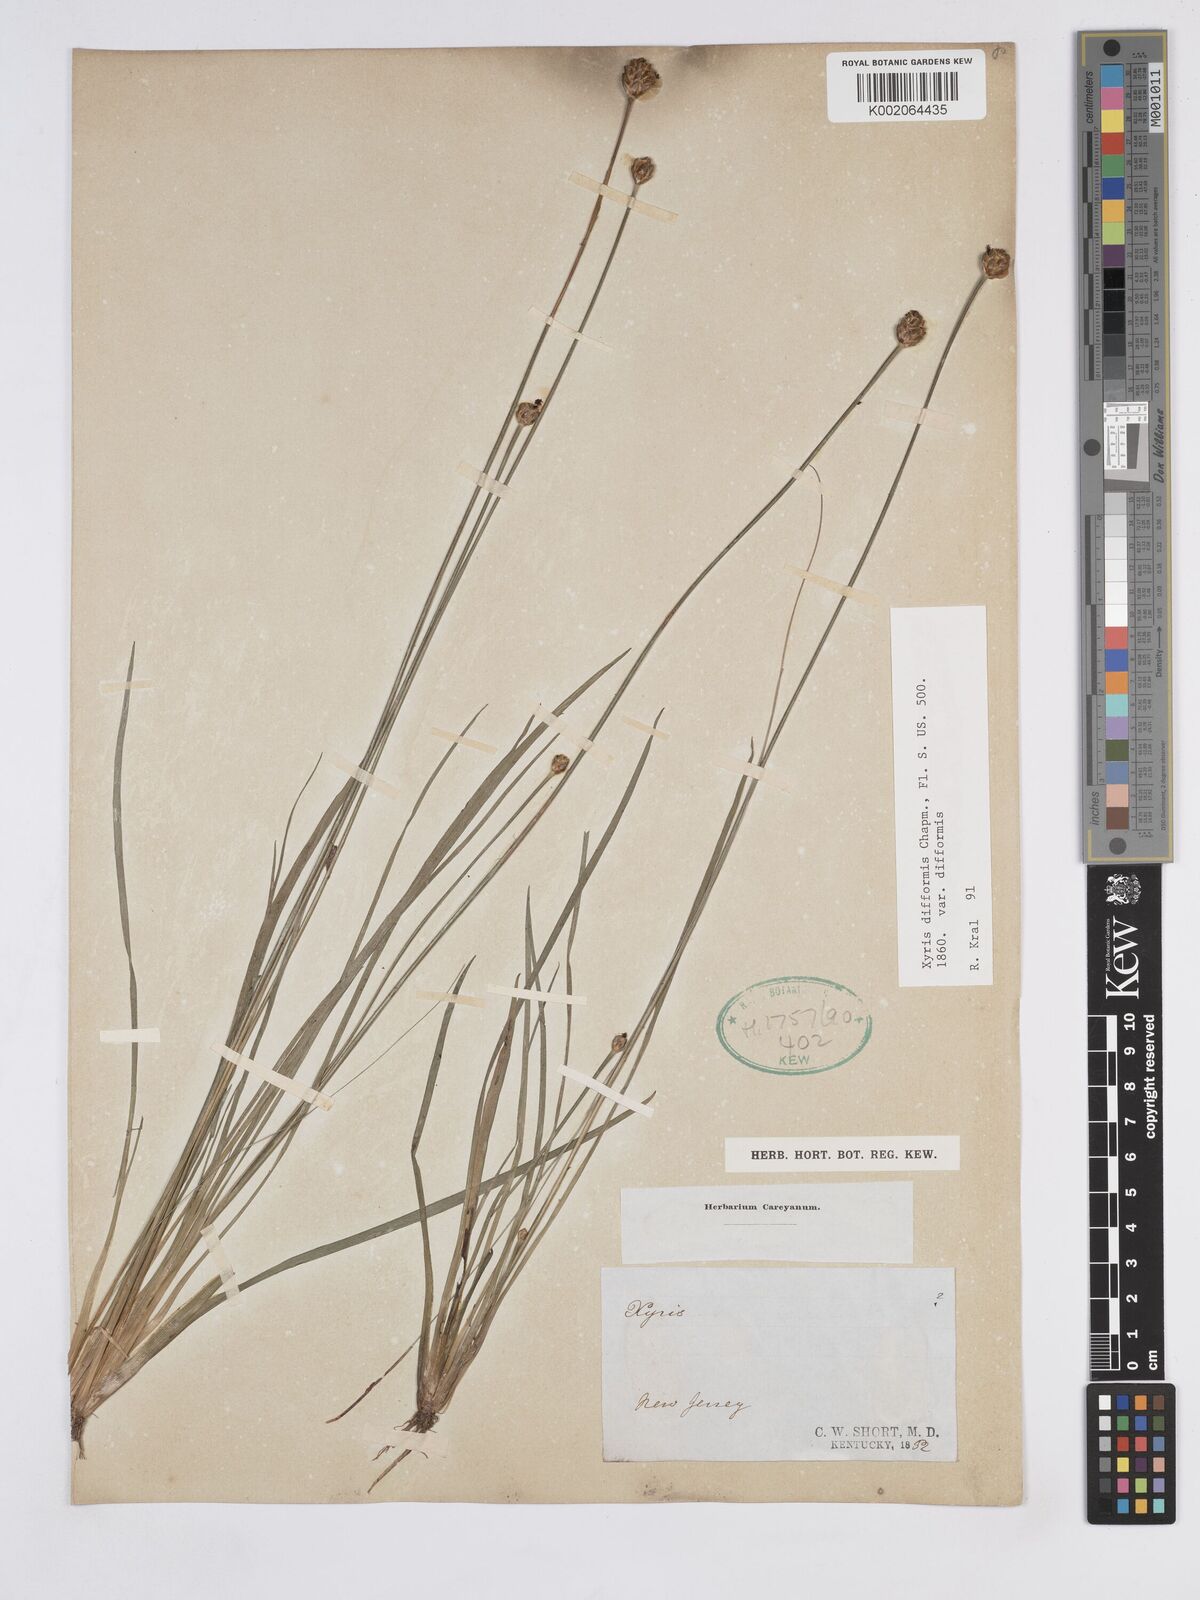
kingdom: Plantae
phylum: Tracheophyta
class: Liliopsida
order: Poales
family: Xyridaceae
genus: Xyris
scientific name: Xyris difformis
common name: Bog yellow-eyed-grass
